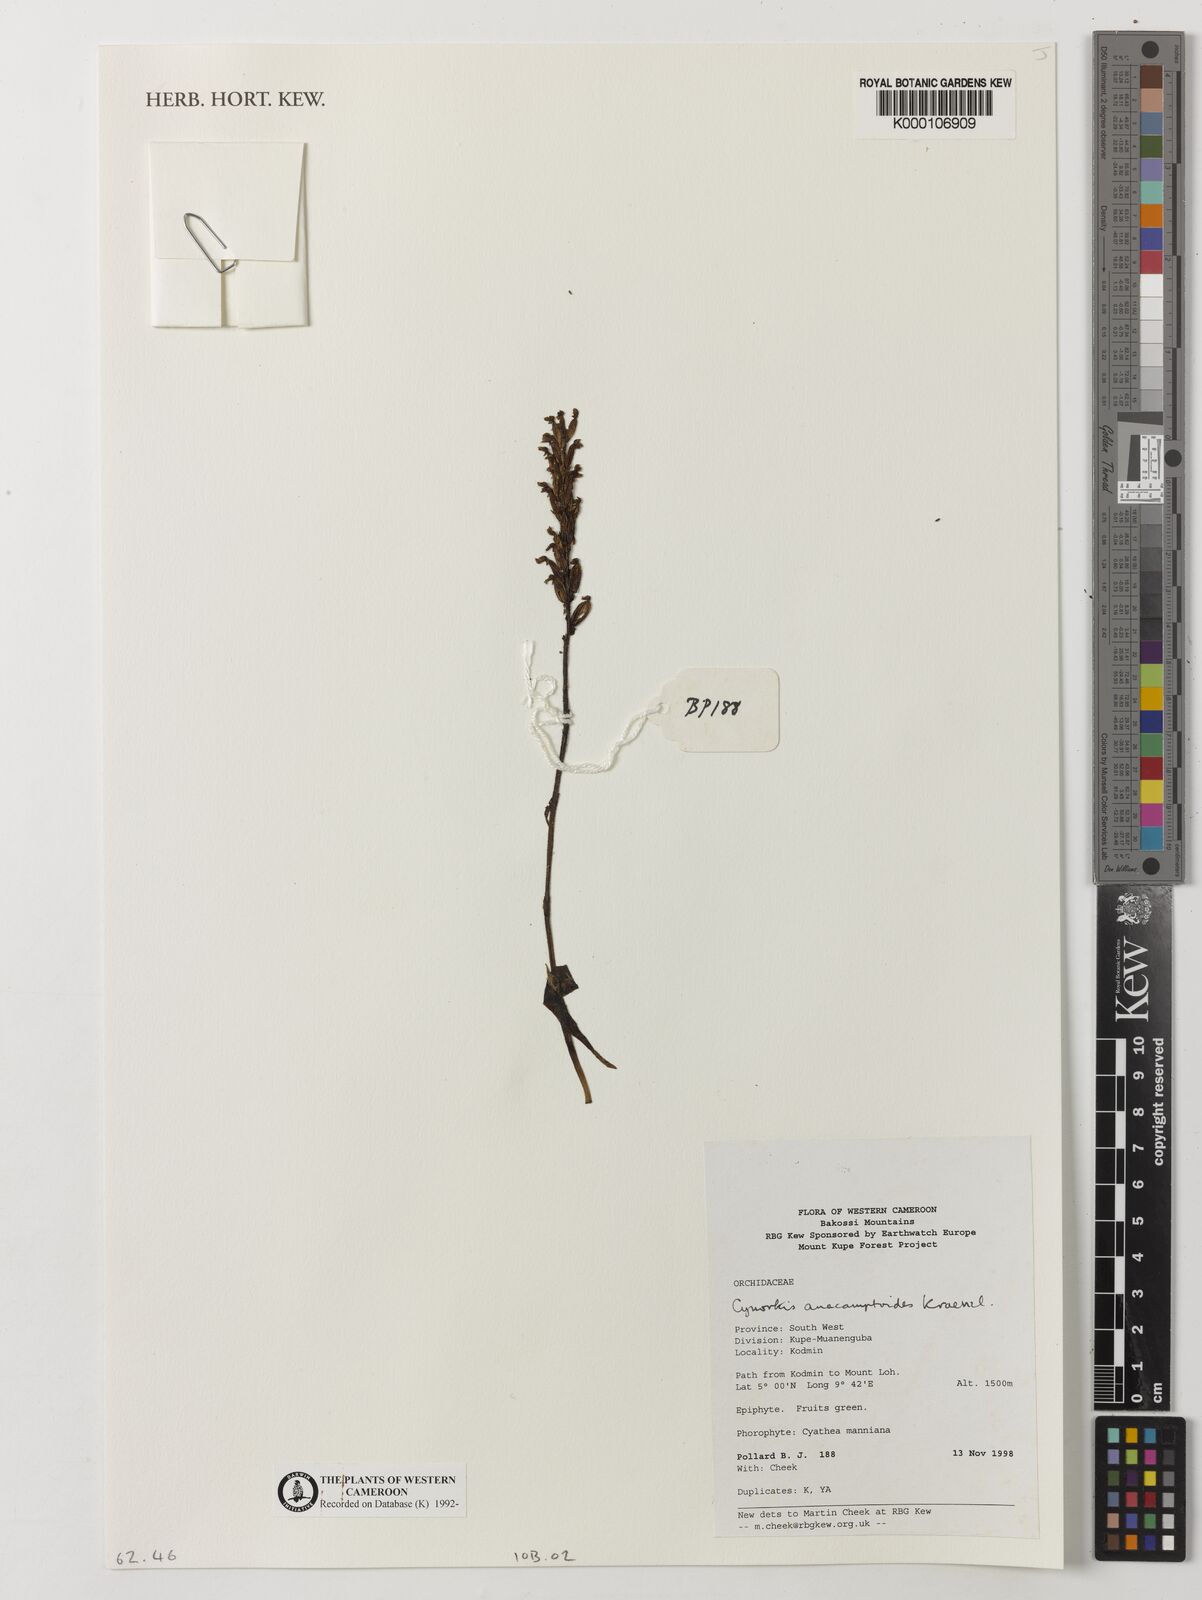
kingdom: Plantae
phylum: Tracheophyta
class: Liliopsida
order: Asparagales
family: Orchidaceae
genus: Cynorkis
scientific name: Cynorkis anacamptoides
